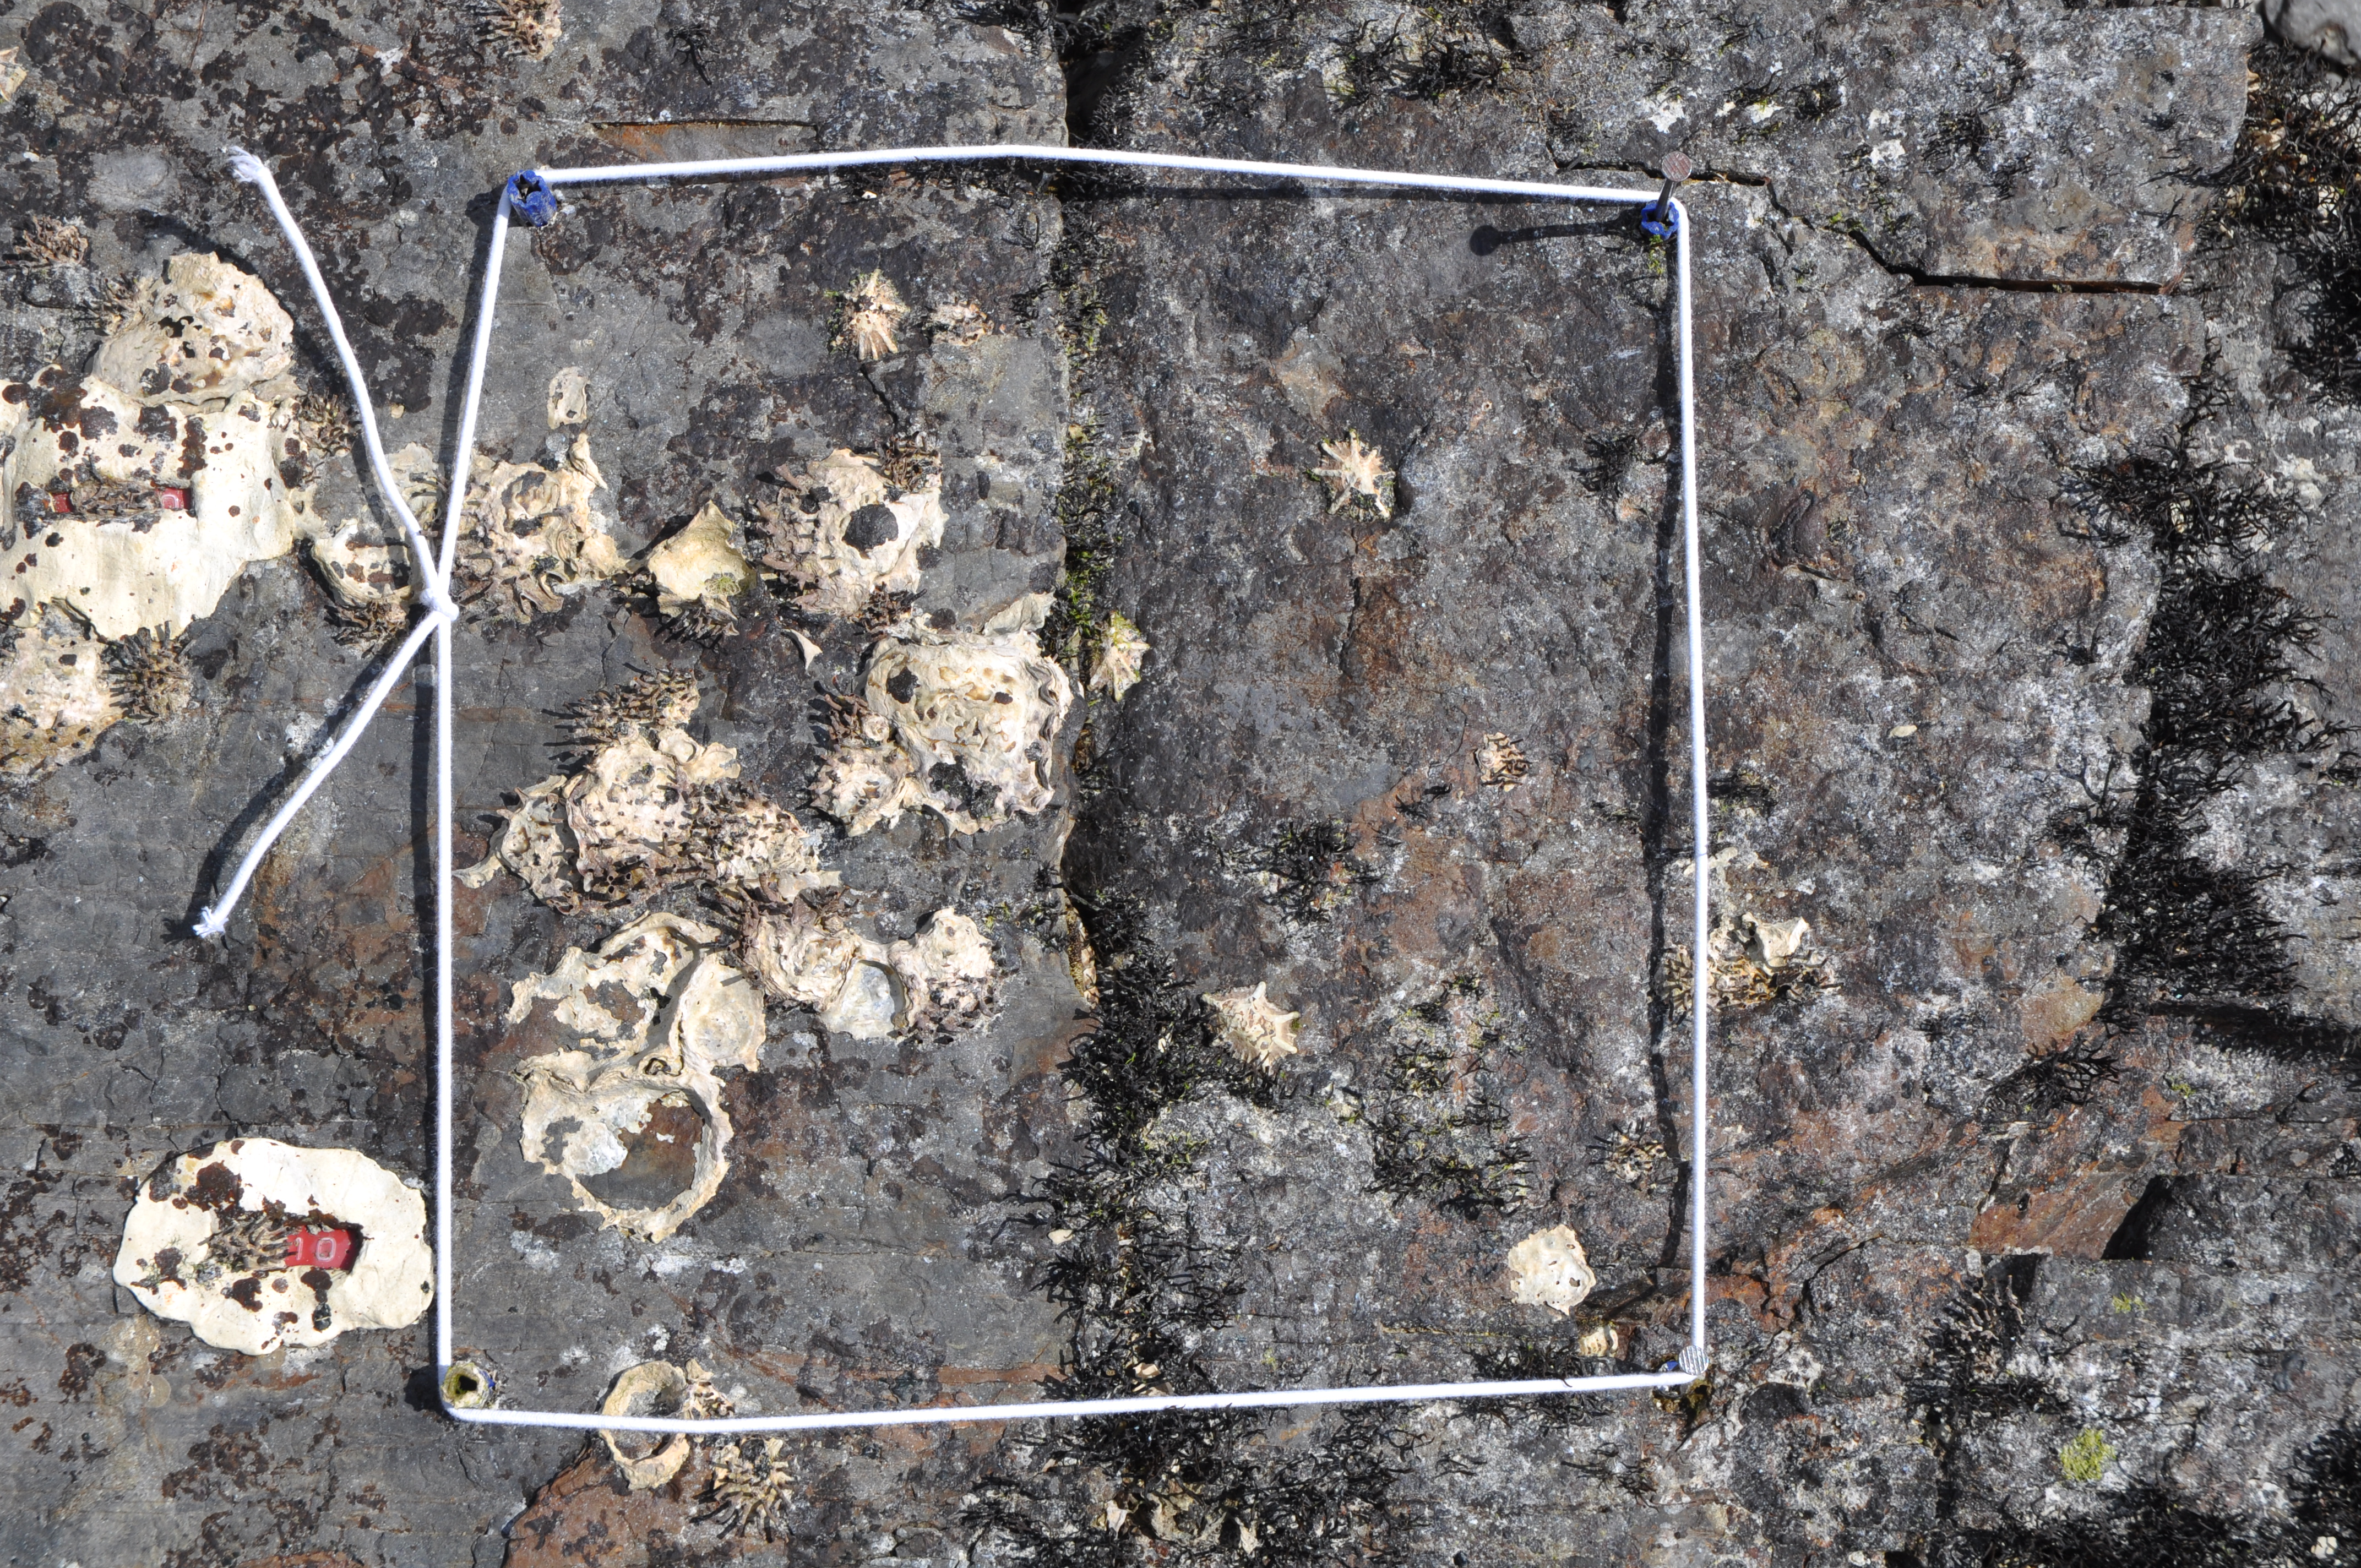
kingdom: Chromista
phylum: Ochrophyta
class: Phaeophyceae
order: Ishigeales
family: Ishigeaceae
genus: Ishige
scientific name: Ishige okamurae
